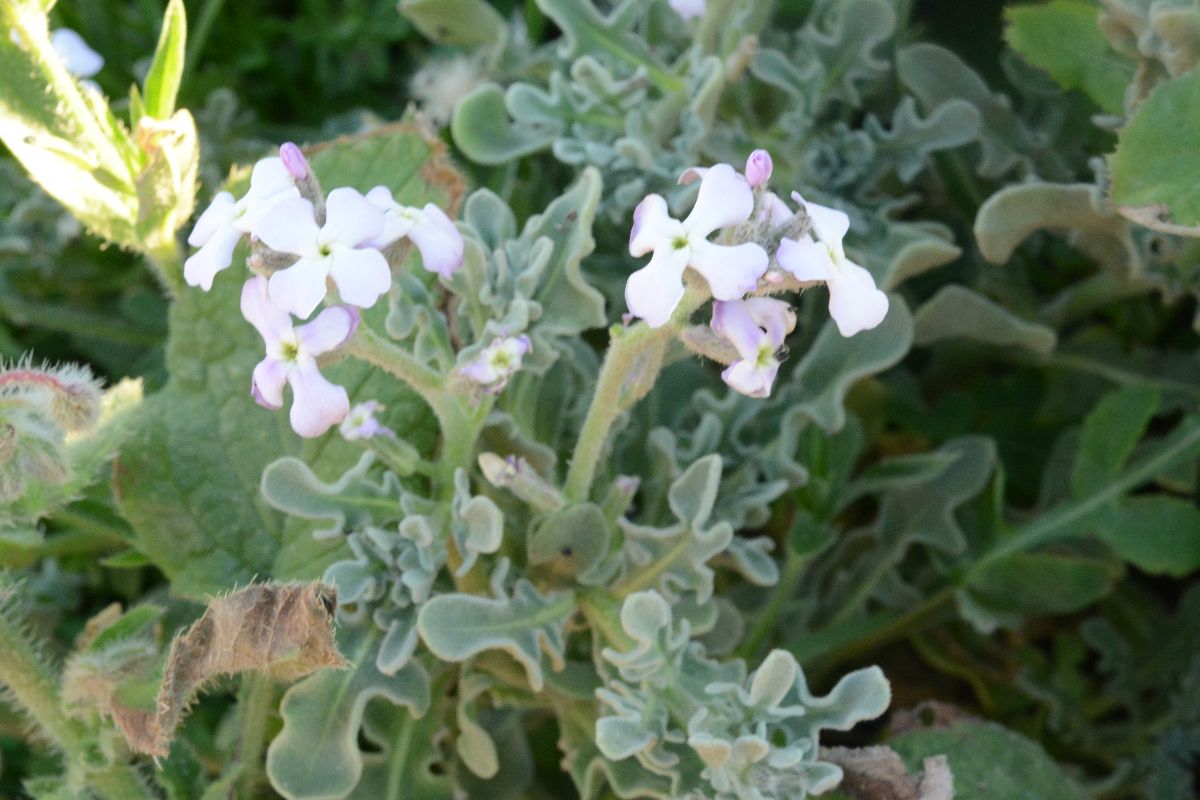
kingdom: Plantae
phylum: Tracheophyta
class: Magnoliopsida
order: Brassicales
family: Brassicaceae
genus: Matthiola
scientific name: Matthiola tricuspidata
